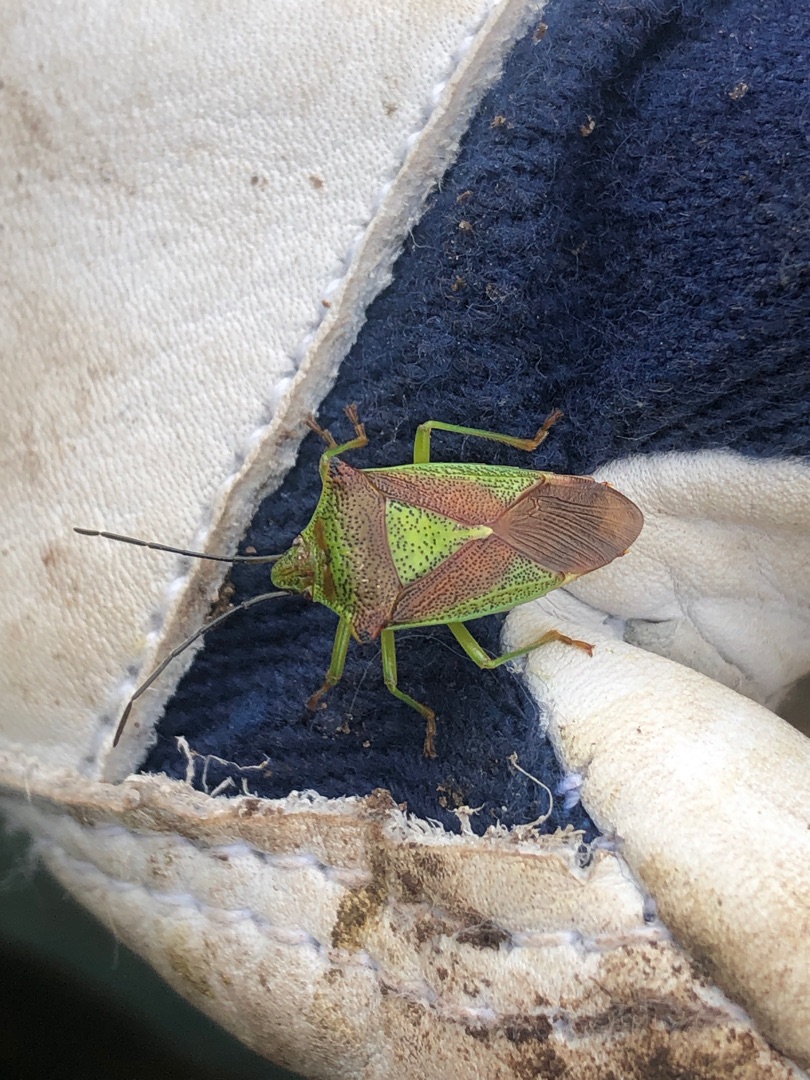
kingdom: Animalia
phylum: Arthropoda
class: Insecta
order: Hemiptera
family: Acanthosomatidae
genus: Acanthosoma
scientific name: Acanthosoma haemorrhoidale
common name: Stor løvtæge
